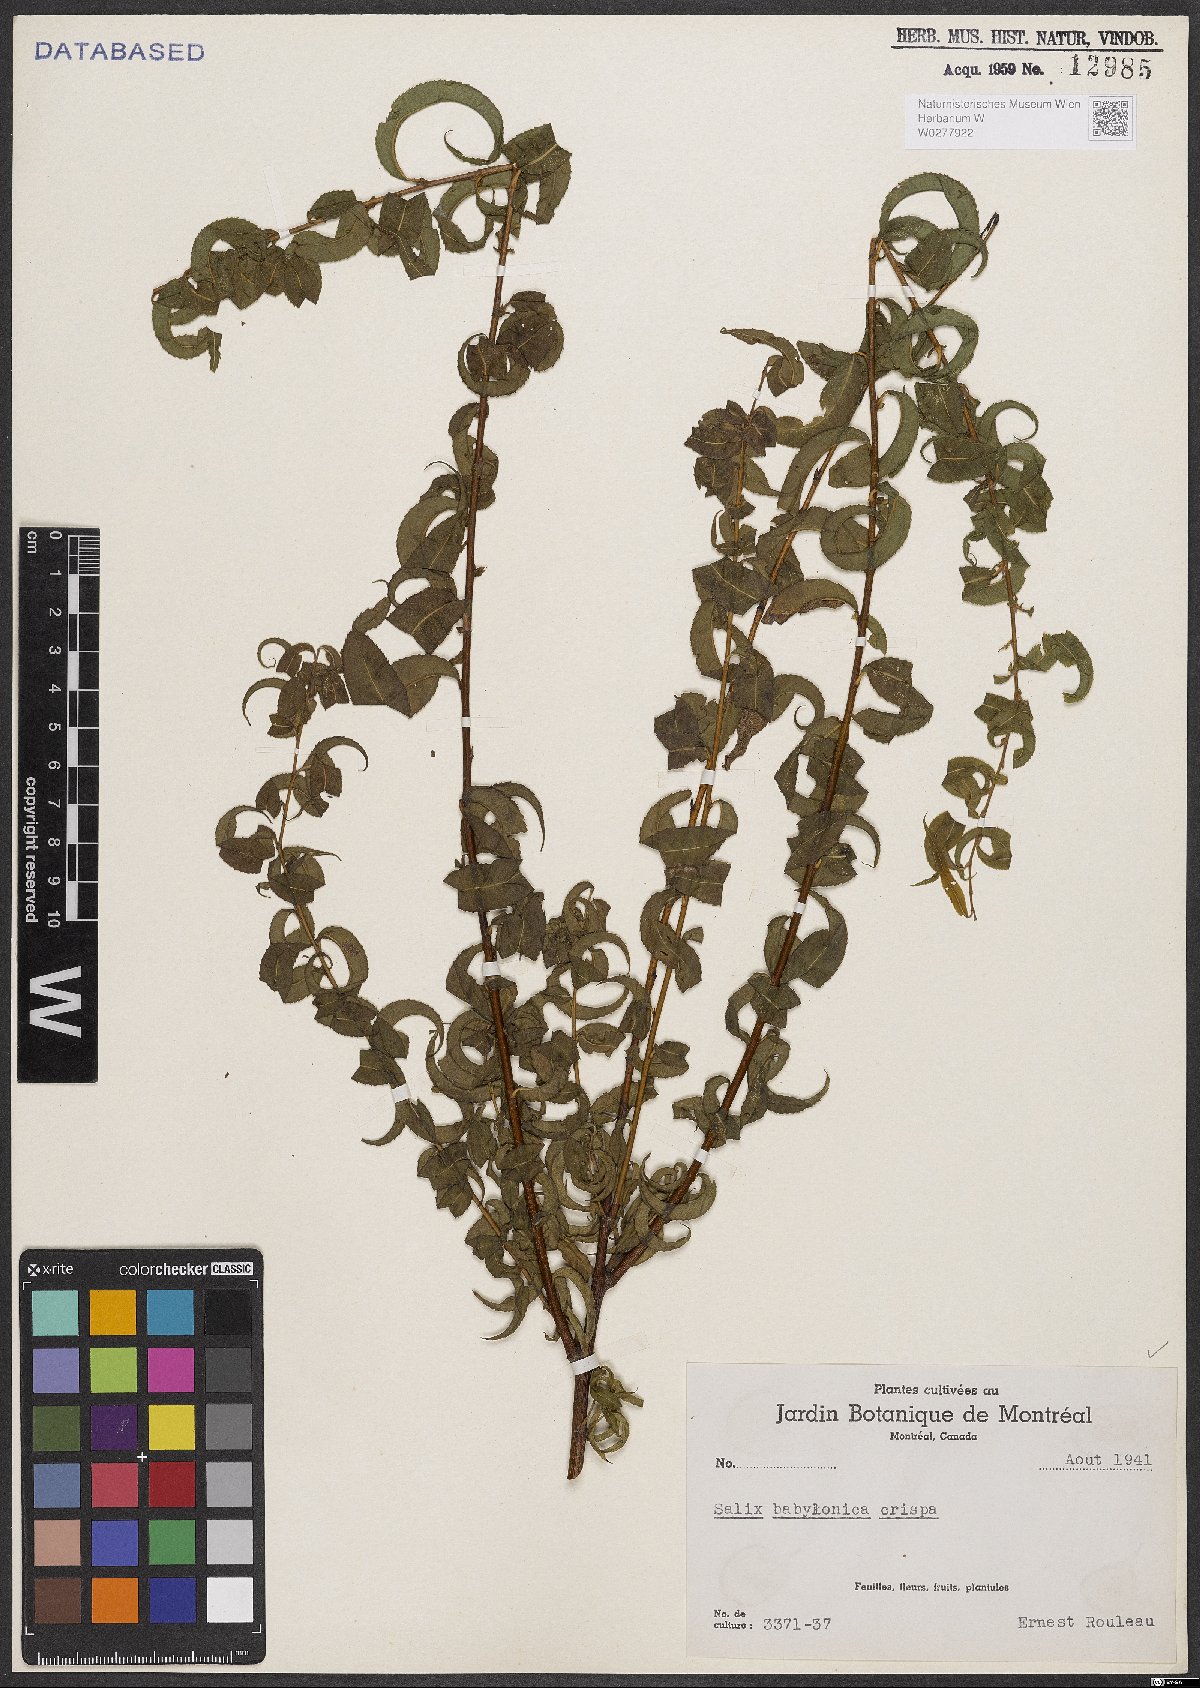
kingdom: Plantae
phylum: Tracheophyta
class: Magnoliopsida
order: Malpighiales
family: Salicaceae
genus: Salix
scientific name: Salix babylonica
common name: Weeping willow
